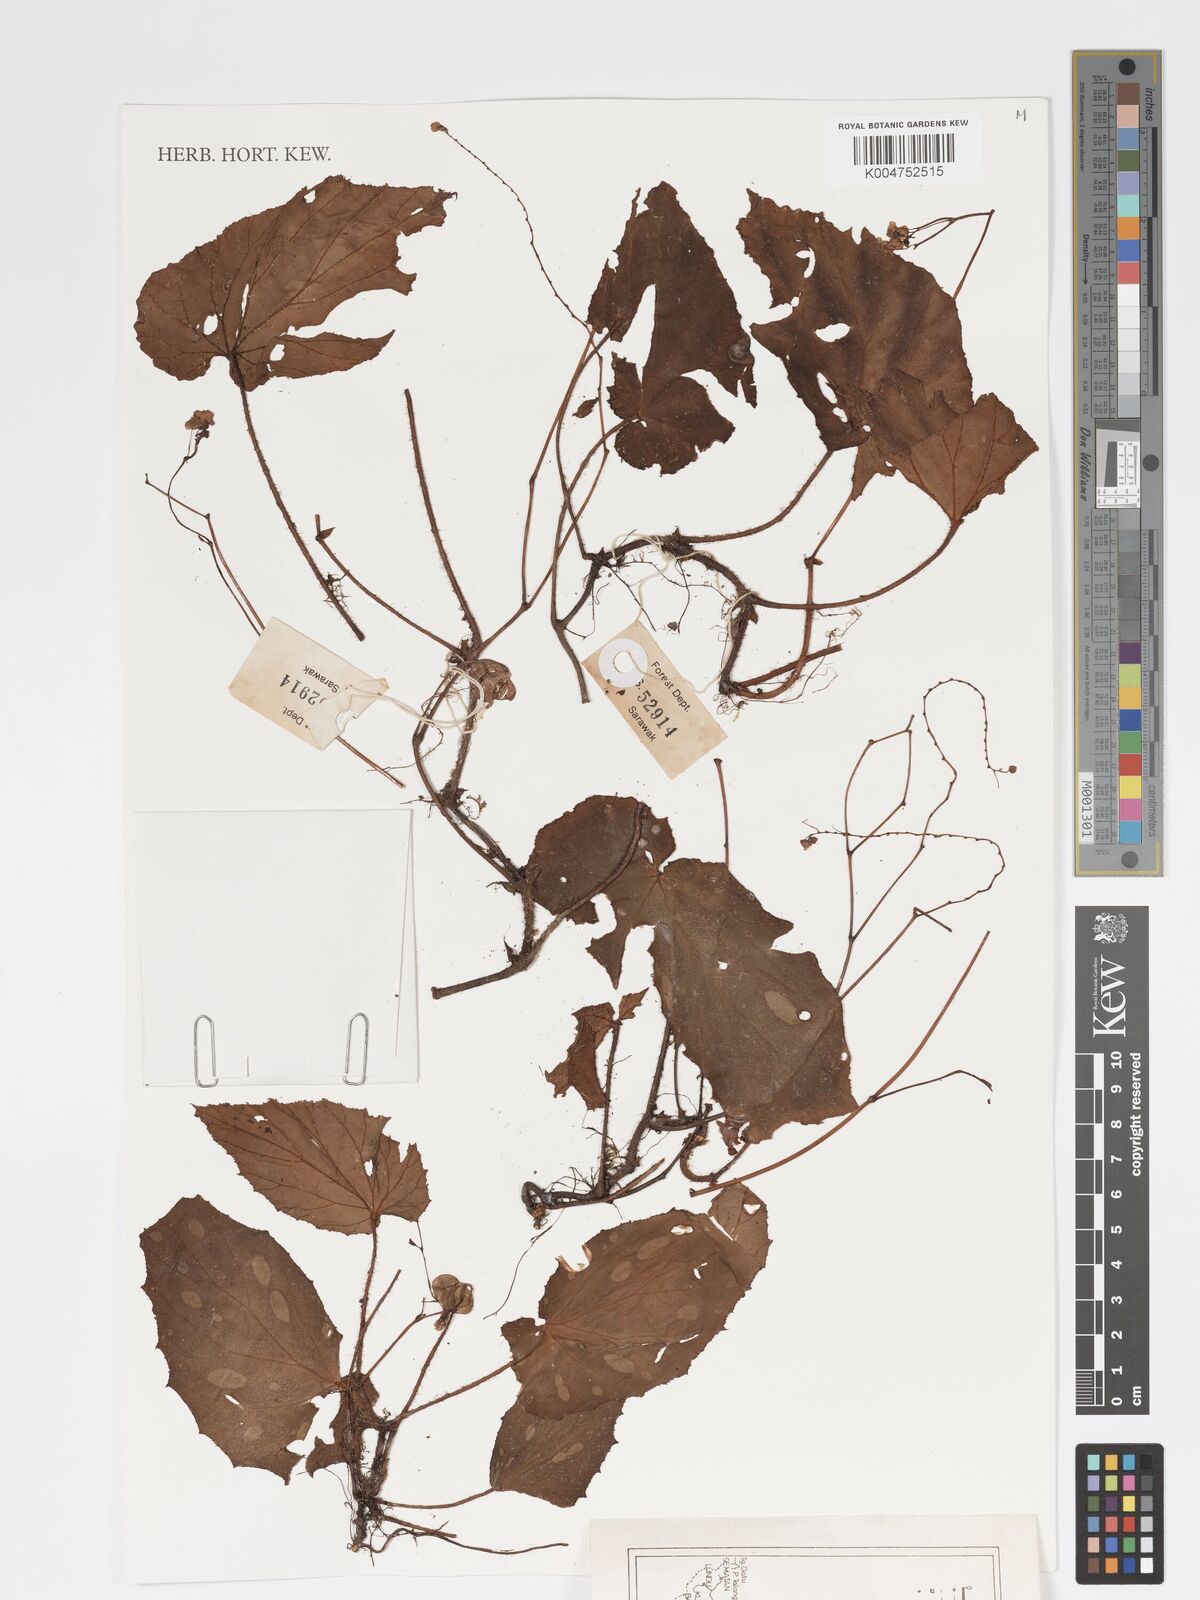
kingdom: Plantae
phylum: Tracheophyta
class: Magnoliopsida
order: Cucurbitales
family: Begoniaceae
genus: Begonia
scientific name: Begonia
